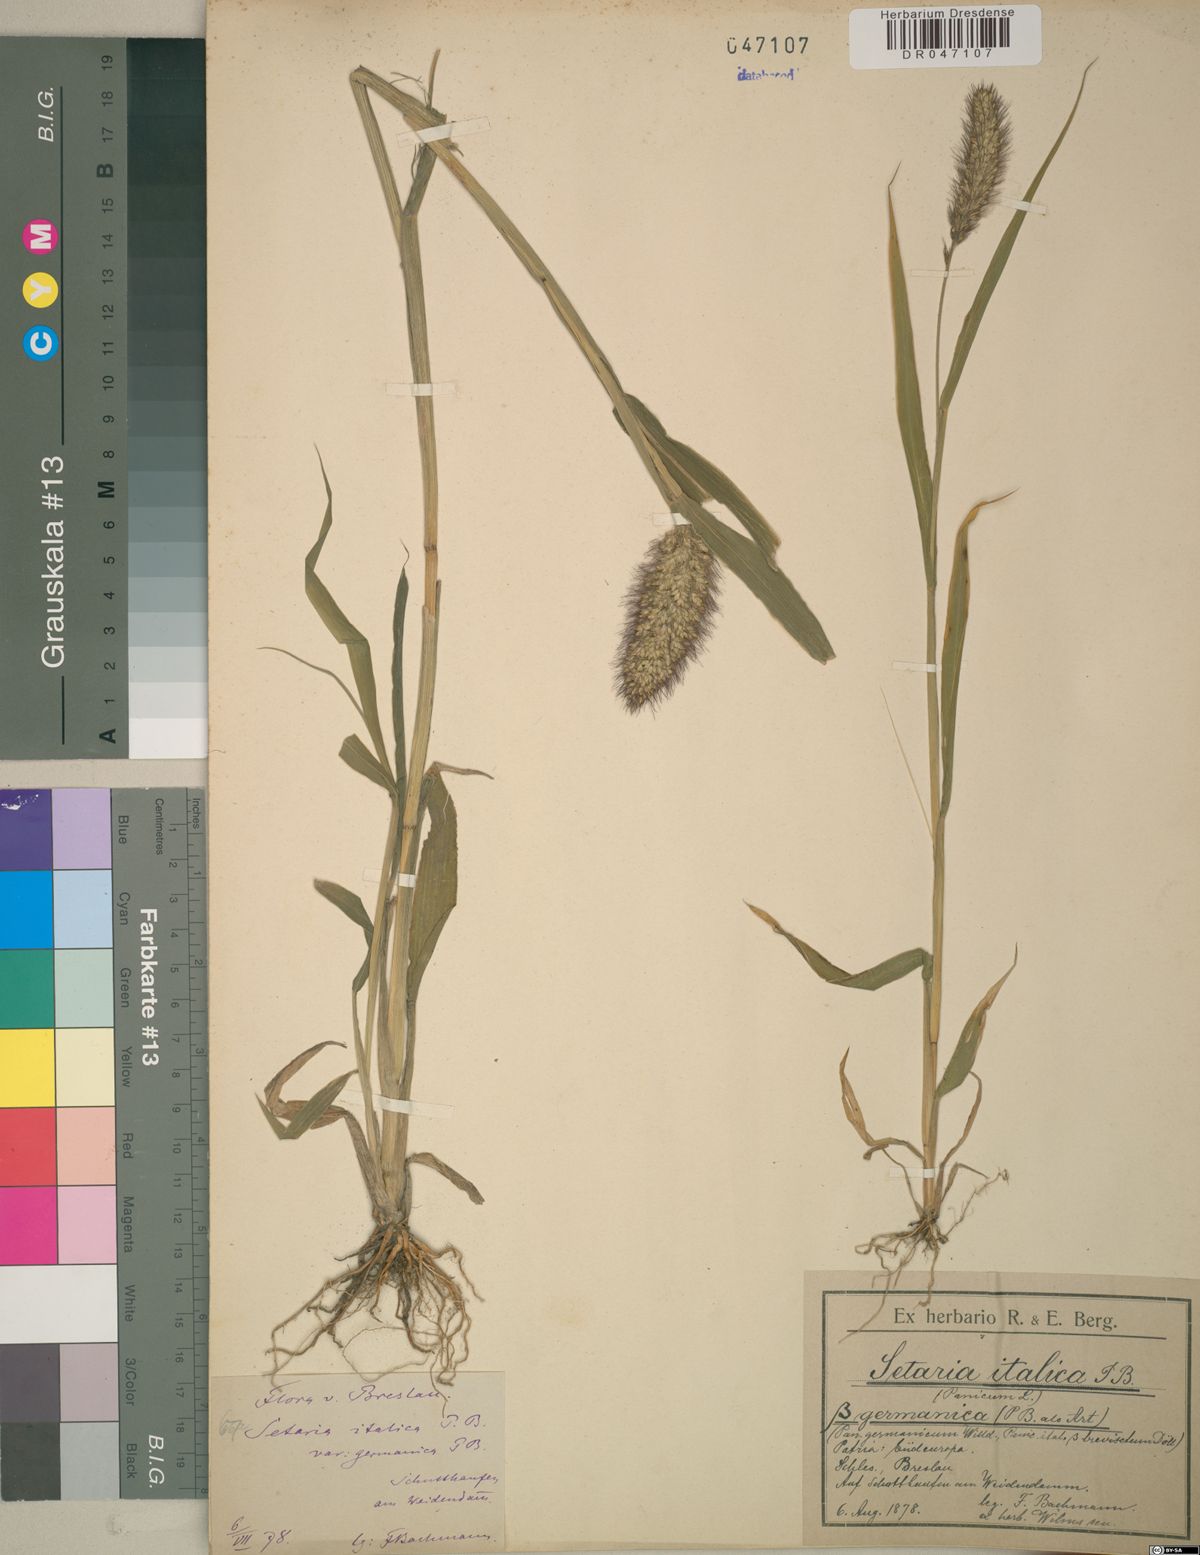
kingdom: Plantae
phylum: Tracheophyta
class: Liliopsida
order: Poales
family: Poaceae
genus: Setaria
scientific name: Setaria italica
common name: Foxtail bristle-grass
